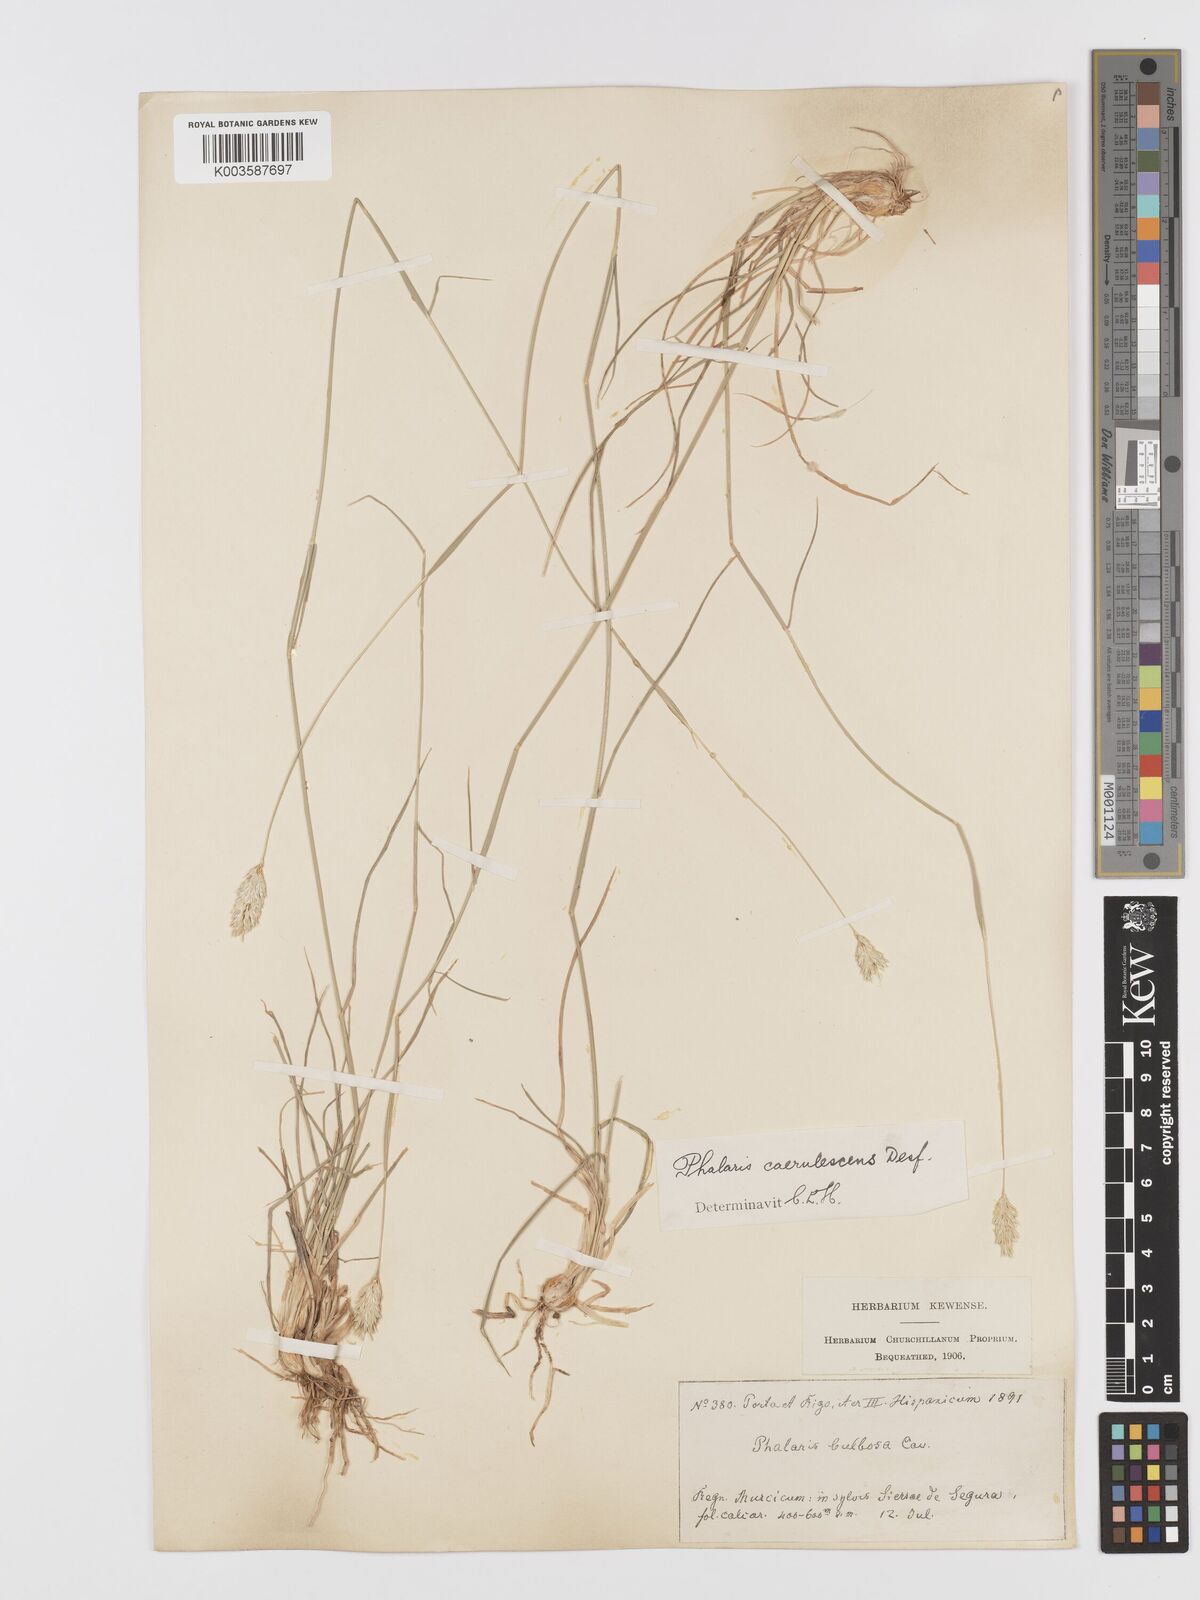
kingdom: Plantae
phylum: Tracheophyta
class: Liliopsida
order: Poales
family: Poaceae
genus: Phalaris
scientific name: Phalaris coerulescens
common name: Sunolgrass
